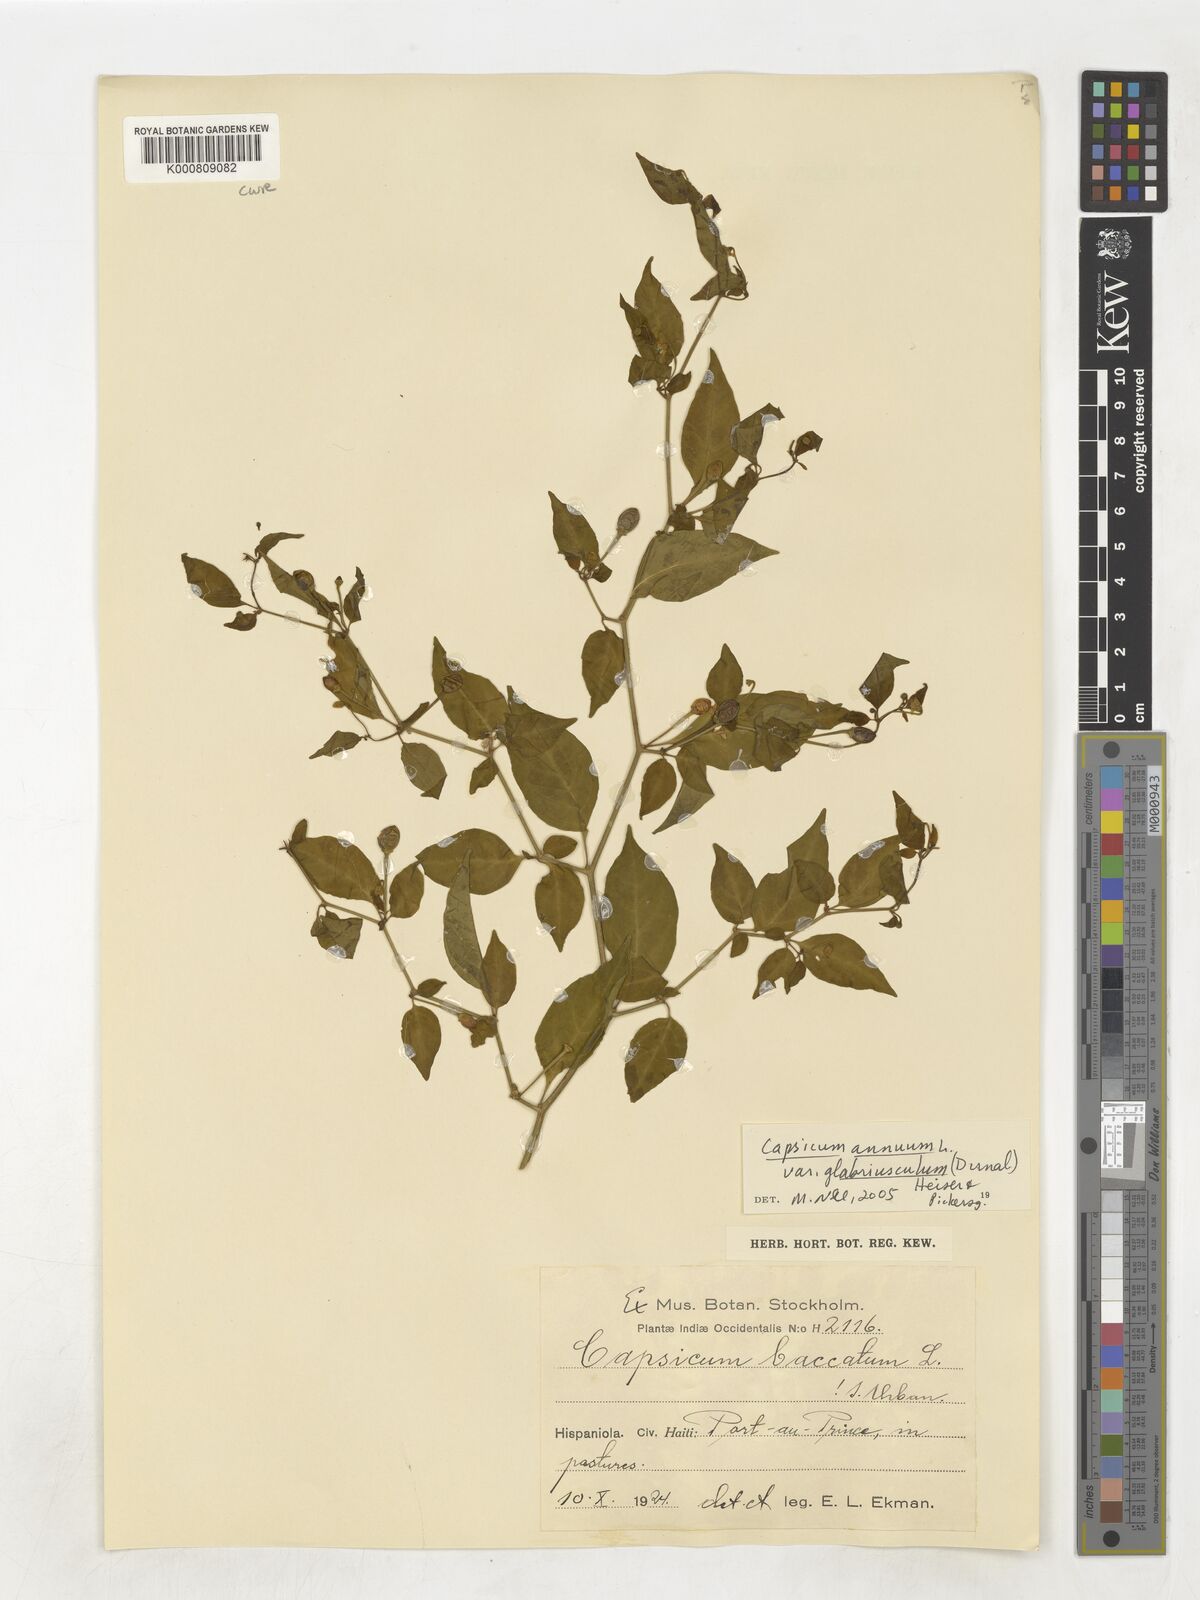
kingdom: Plantae
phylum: Tracheophyta
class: Magnoliopsida
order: Solanales
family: Solanaceae
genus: Capsicum
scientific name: Capsicum annuum
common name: Sweet pepper
